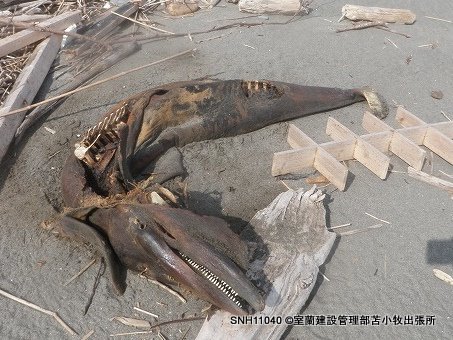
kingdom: Animalia
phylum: Chordata
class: Mammalia
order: Cetacea
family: Delphinidae
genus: Lagenorhynchus
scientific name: Lagenorhynchus obliquidens
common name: Pacific white-sided dolphin
